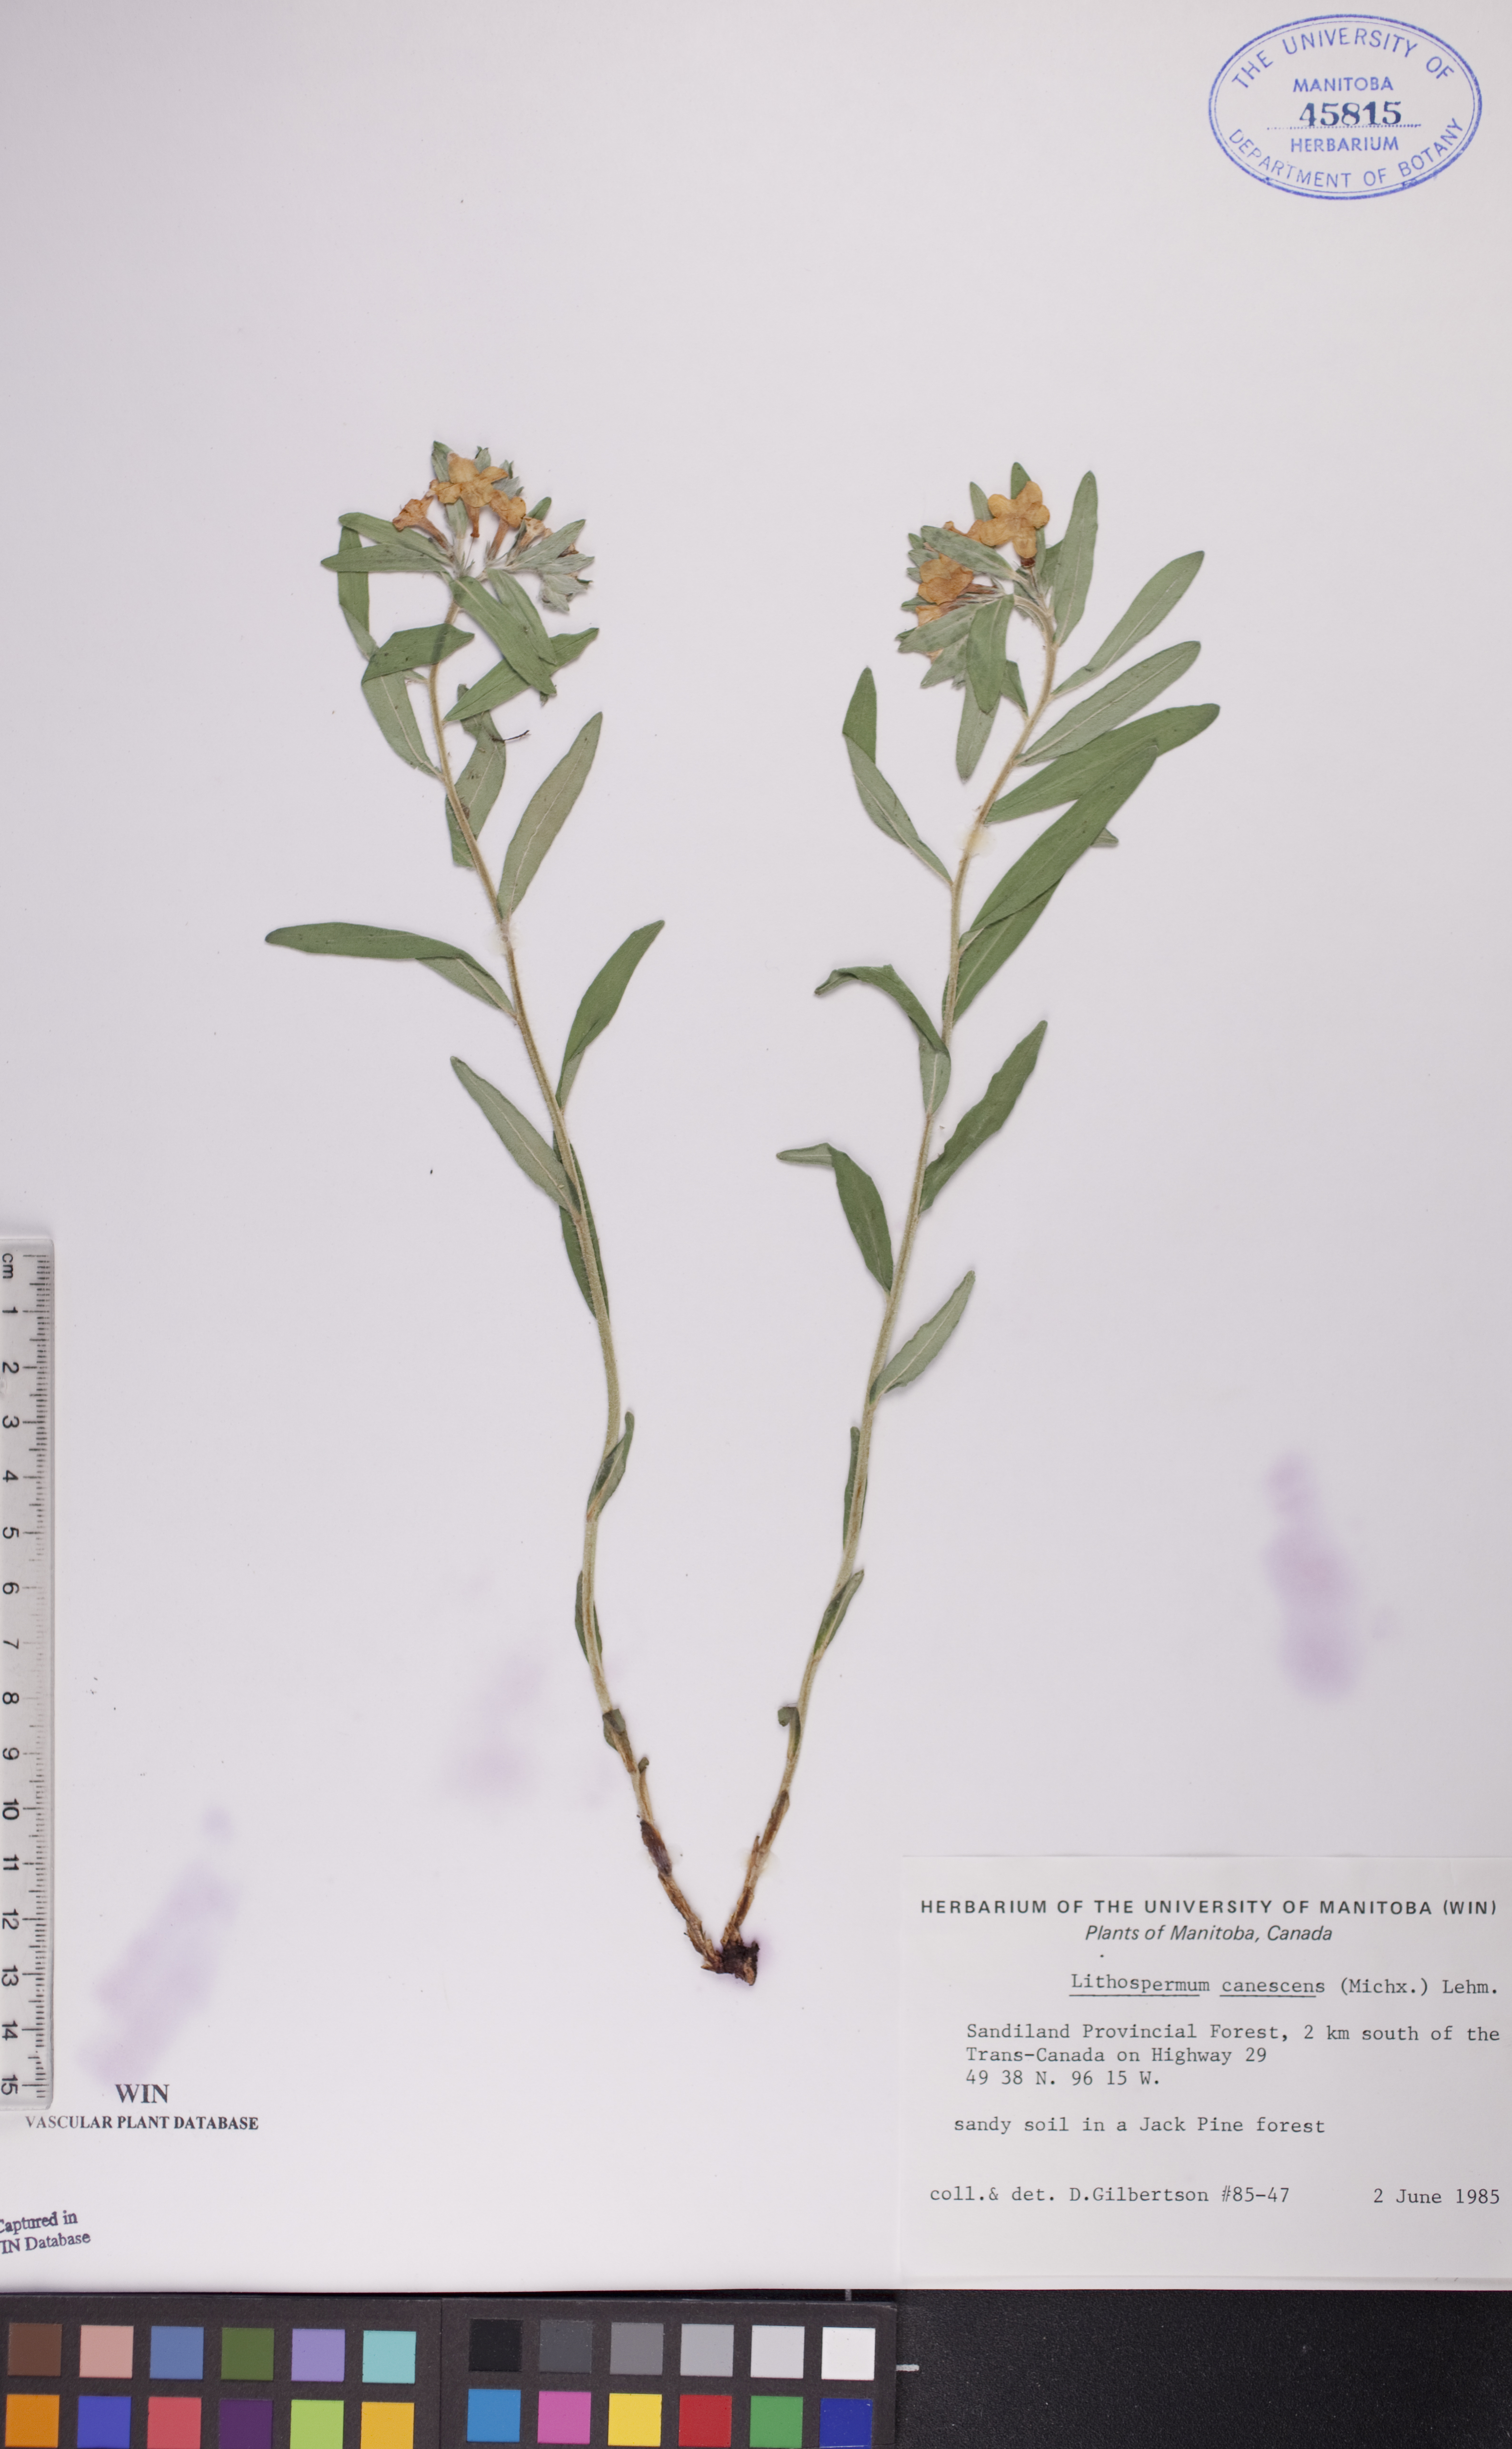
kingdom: Plantae
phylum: Tracheophyta
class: Magnoliopsida
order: Boraginales
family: Boraginaceae
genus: Lithospermum
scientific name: Lithospermum canescens
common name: Hoary puccoon
